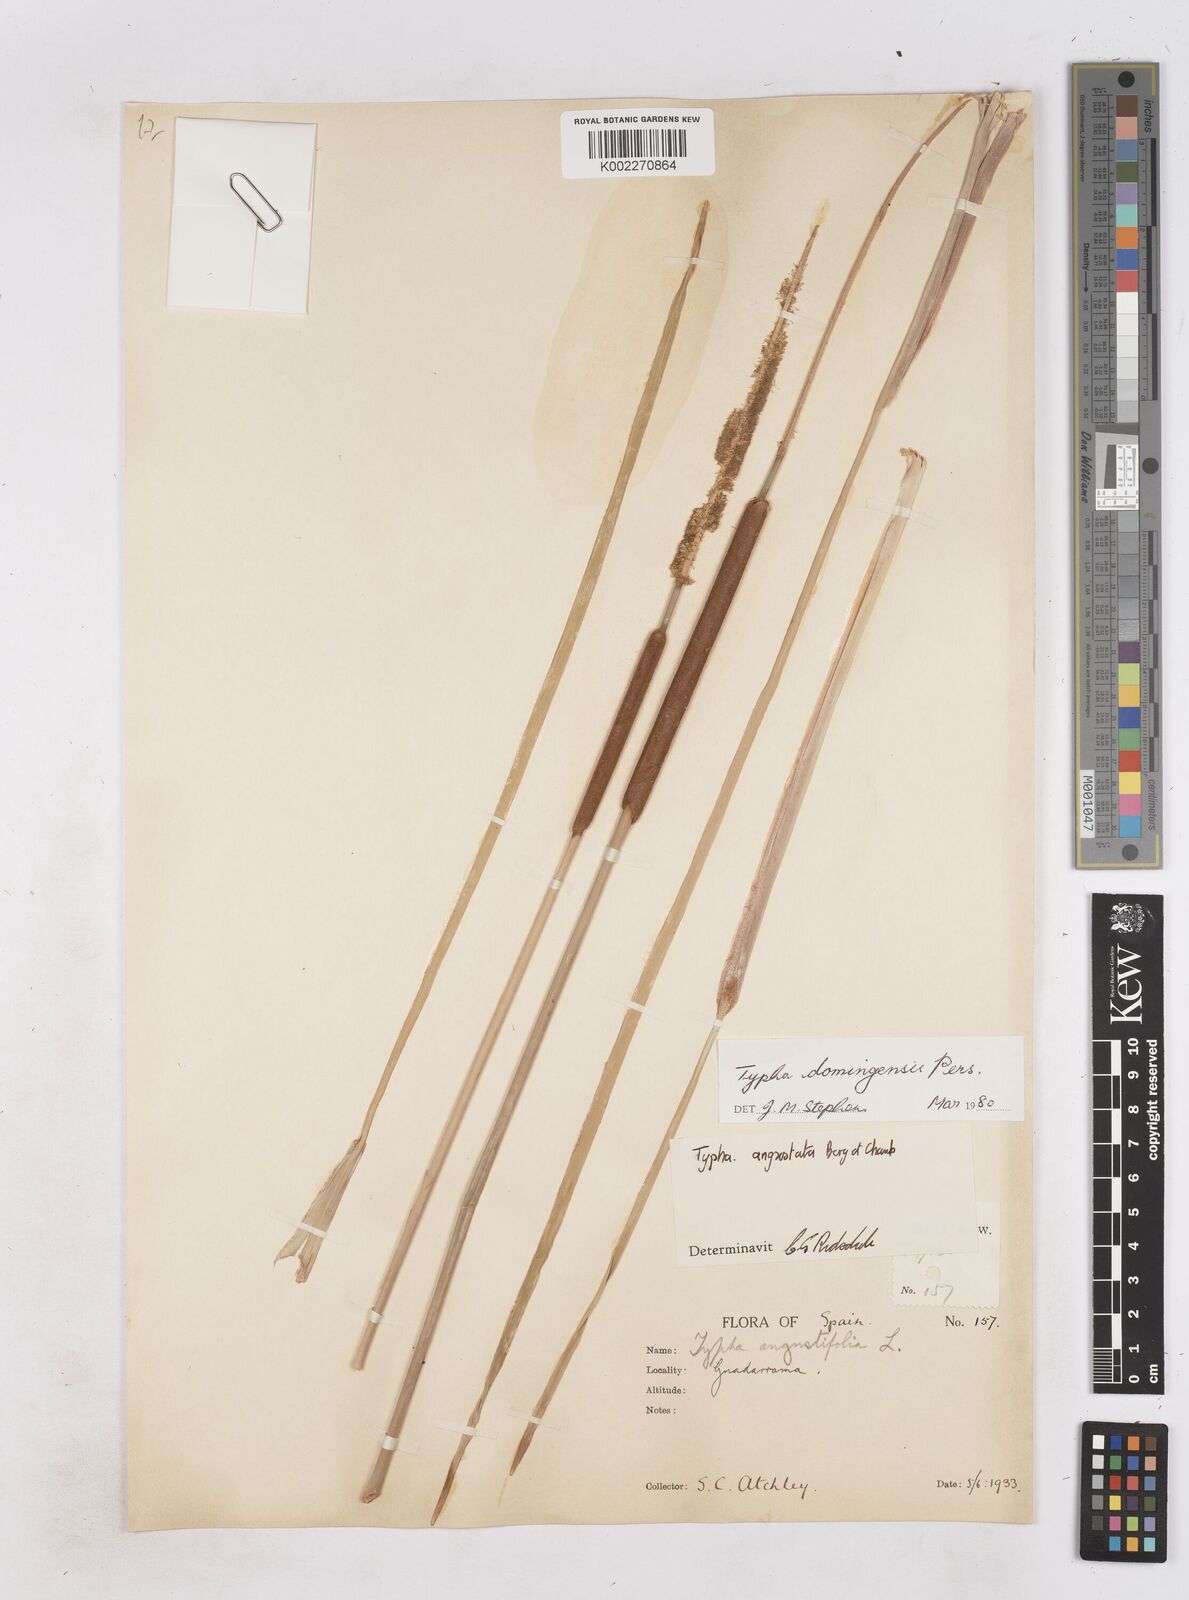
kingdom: Plantae
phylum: Tracheophyta
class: Liliopsida
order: Poales
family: Typhaceae
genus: Typha
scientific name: Typha domingensis
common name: Southern cattail
